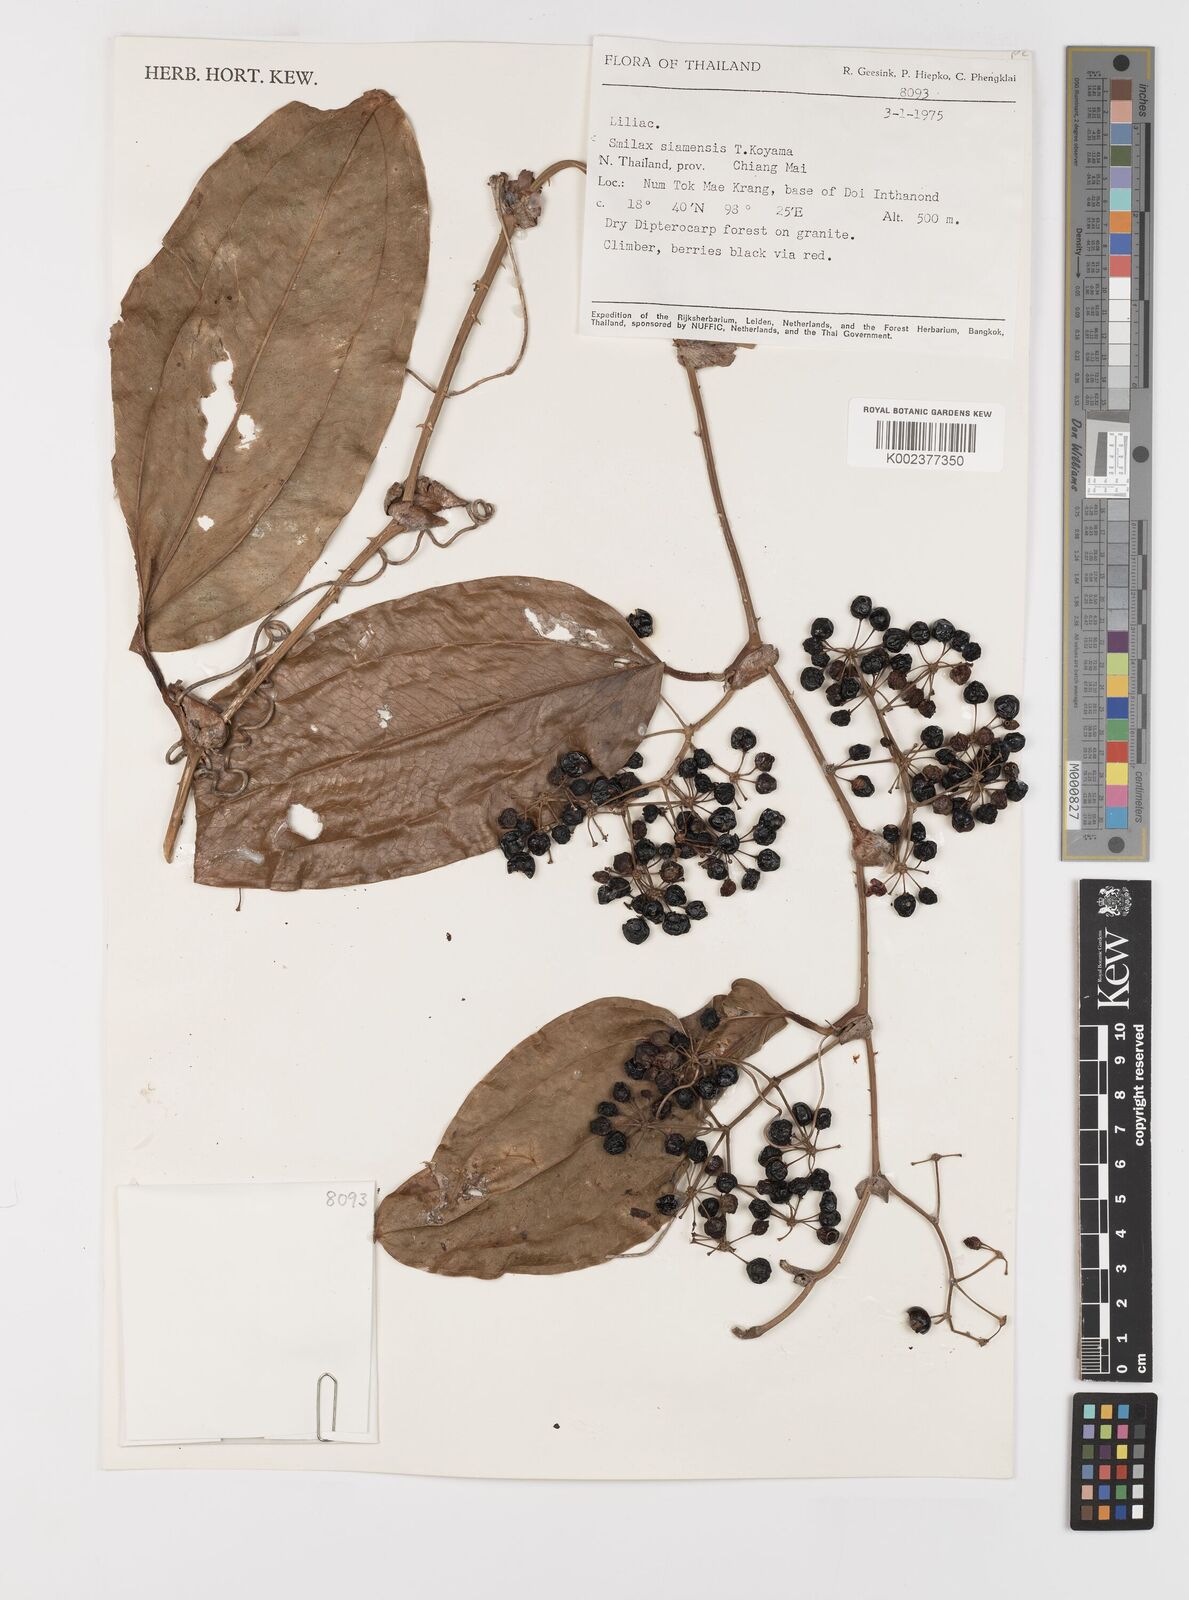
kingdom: Plantae
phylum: Tracheophyta
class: Liliopsida
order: Liliales
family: Smilacaceae
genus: Smilax
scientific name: Smilax prolifera
